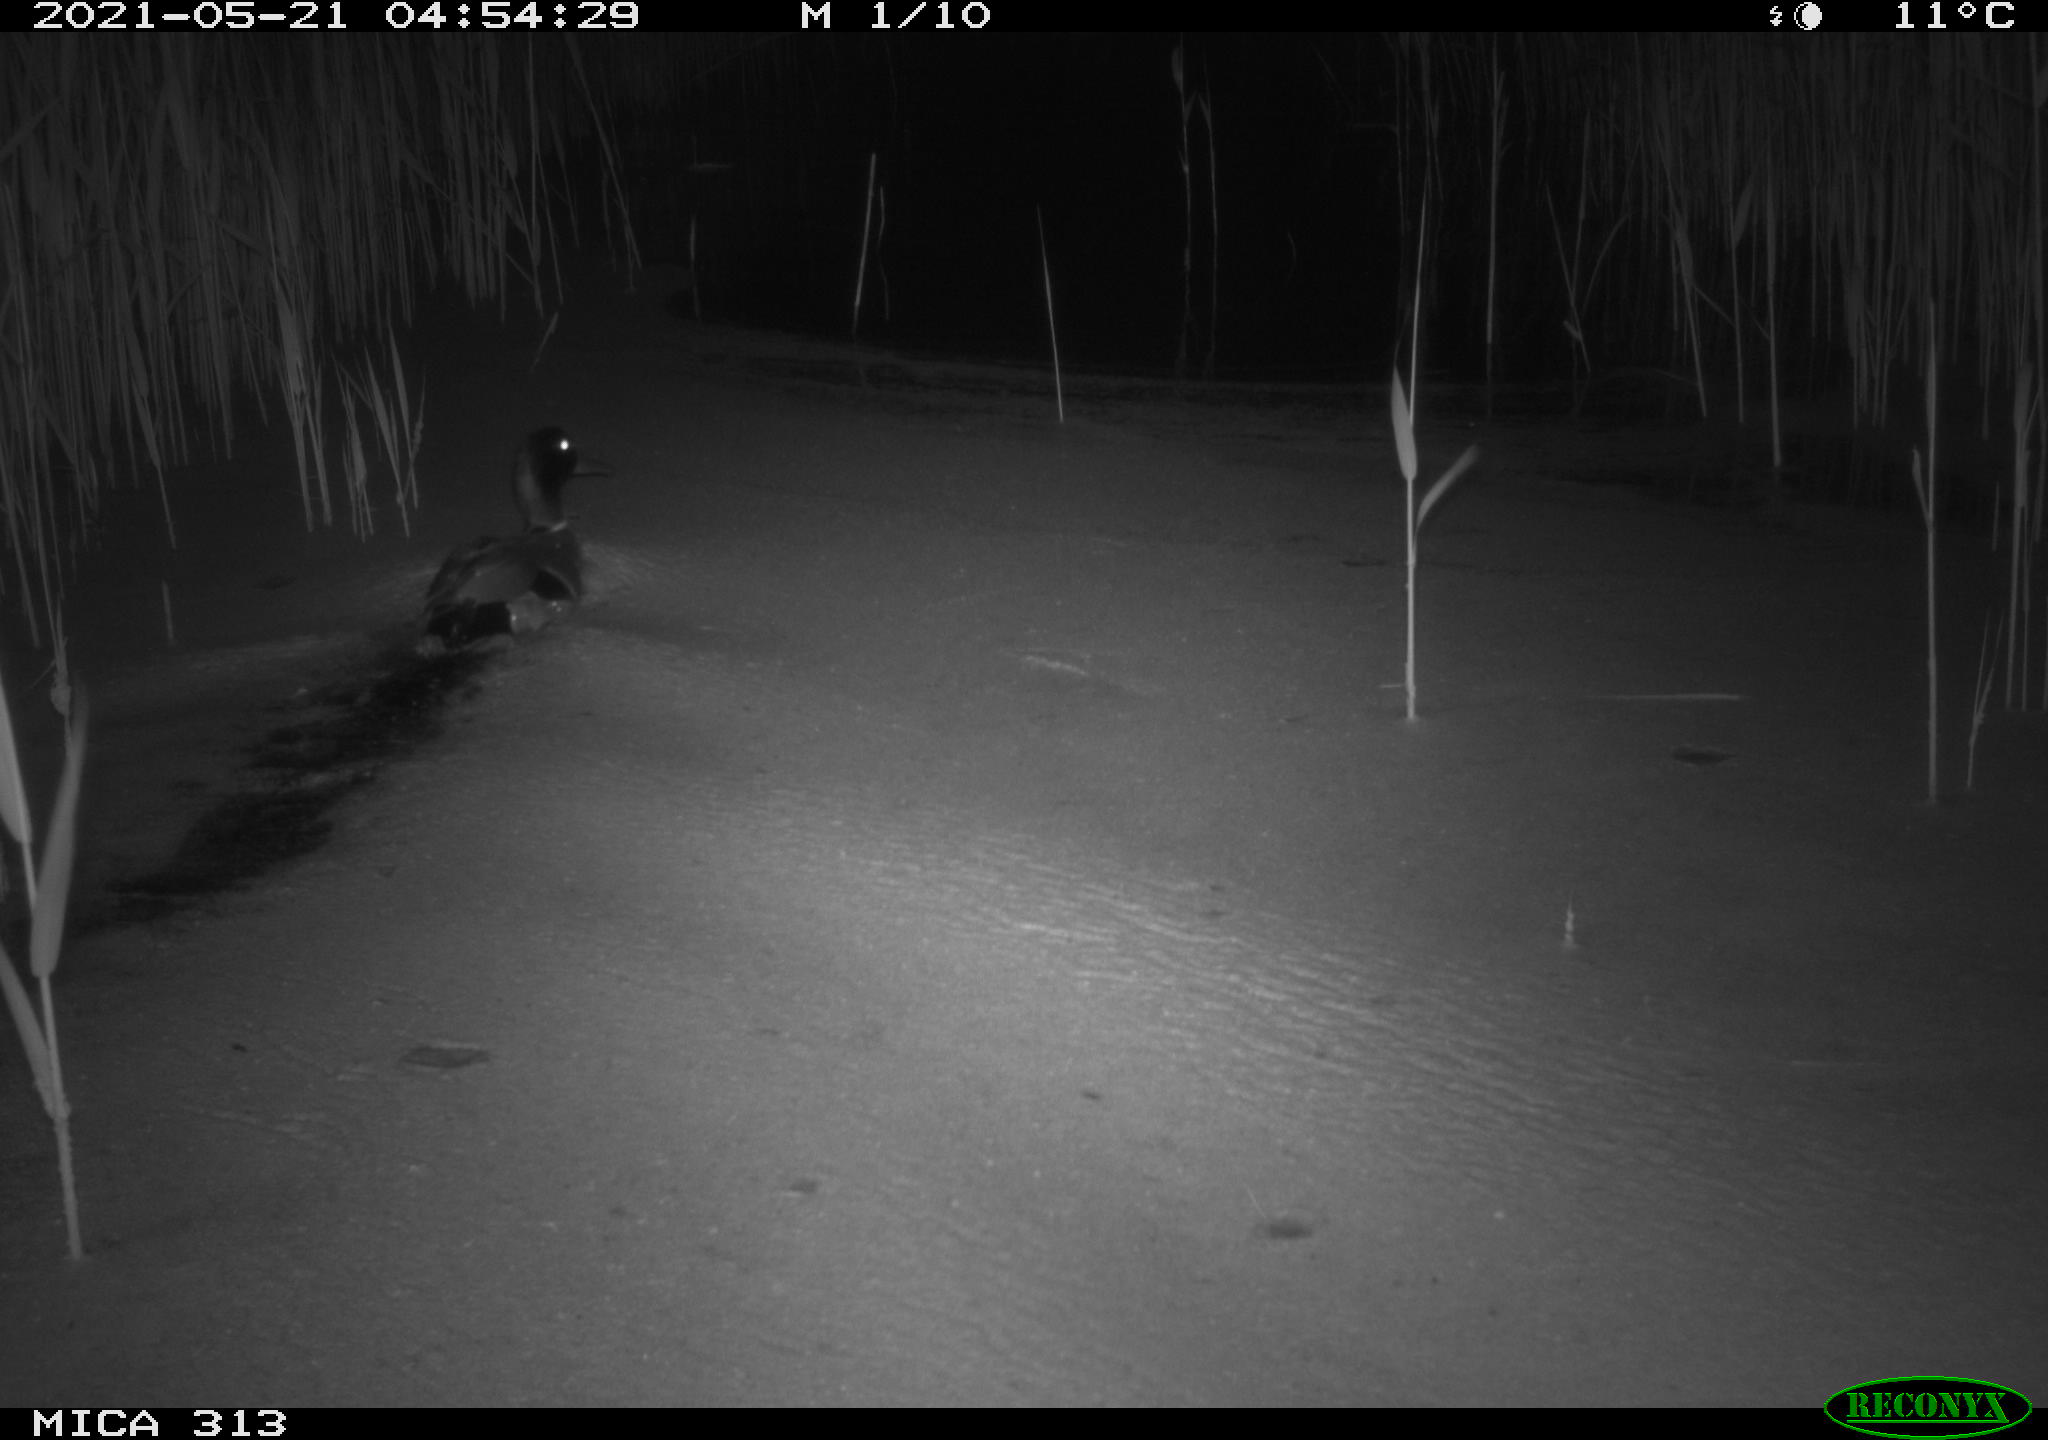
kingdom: Animalia
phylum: Chordata
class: Aves
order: Anseriformes
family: Anatidae
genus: Anas
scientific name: Anas platyrhynchos
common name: Mallard
